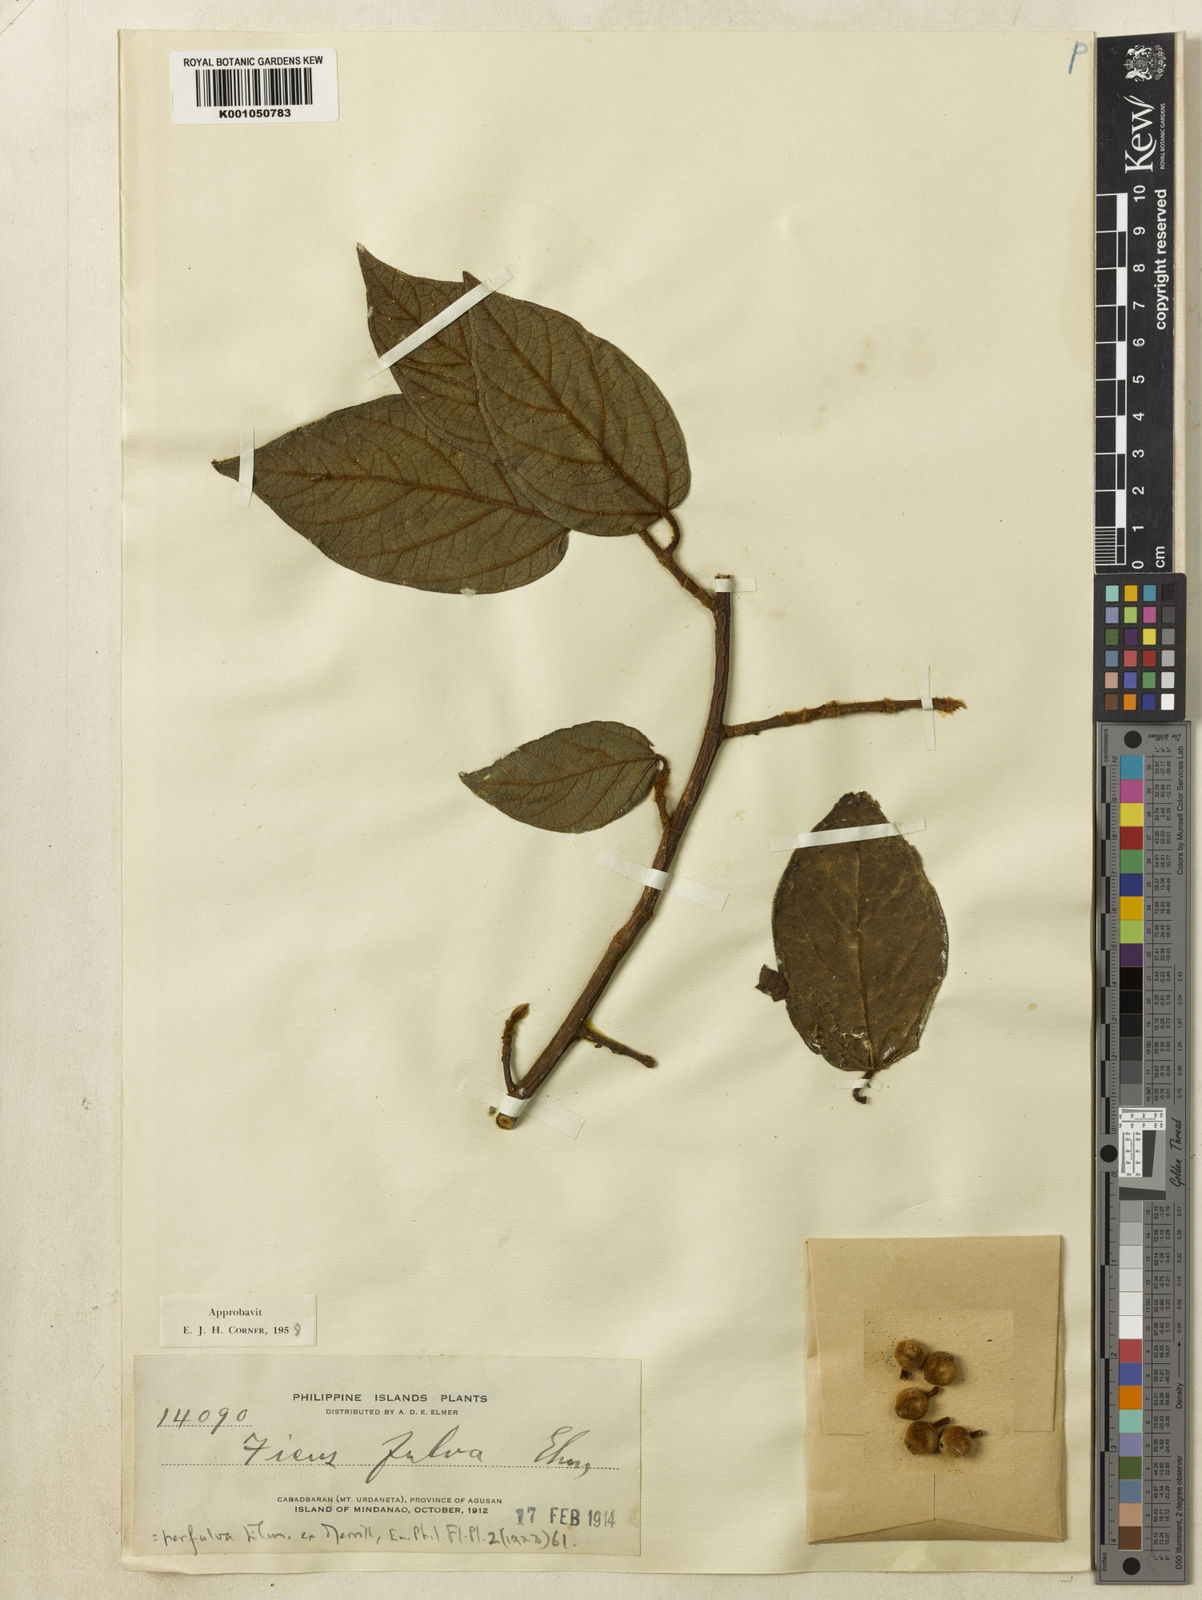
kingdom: Plantae
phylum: Tracheophyta
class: Magnoliopsida
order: Rosales
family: Moraceae
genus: Ficus
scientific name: Ficus perfulva
